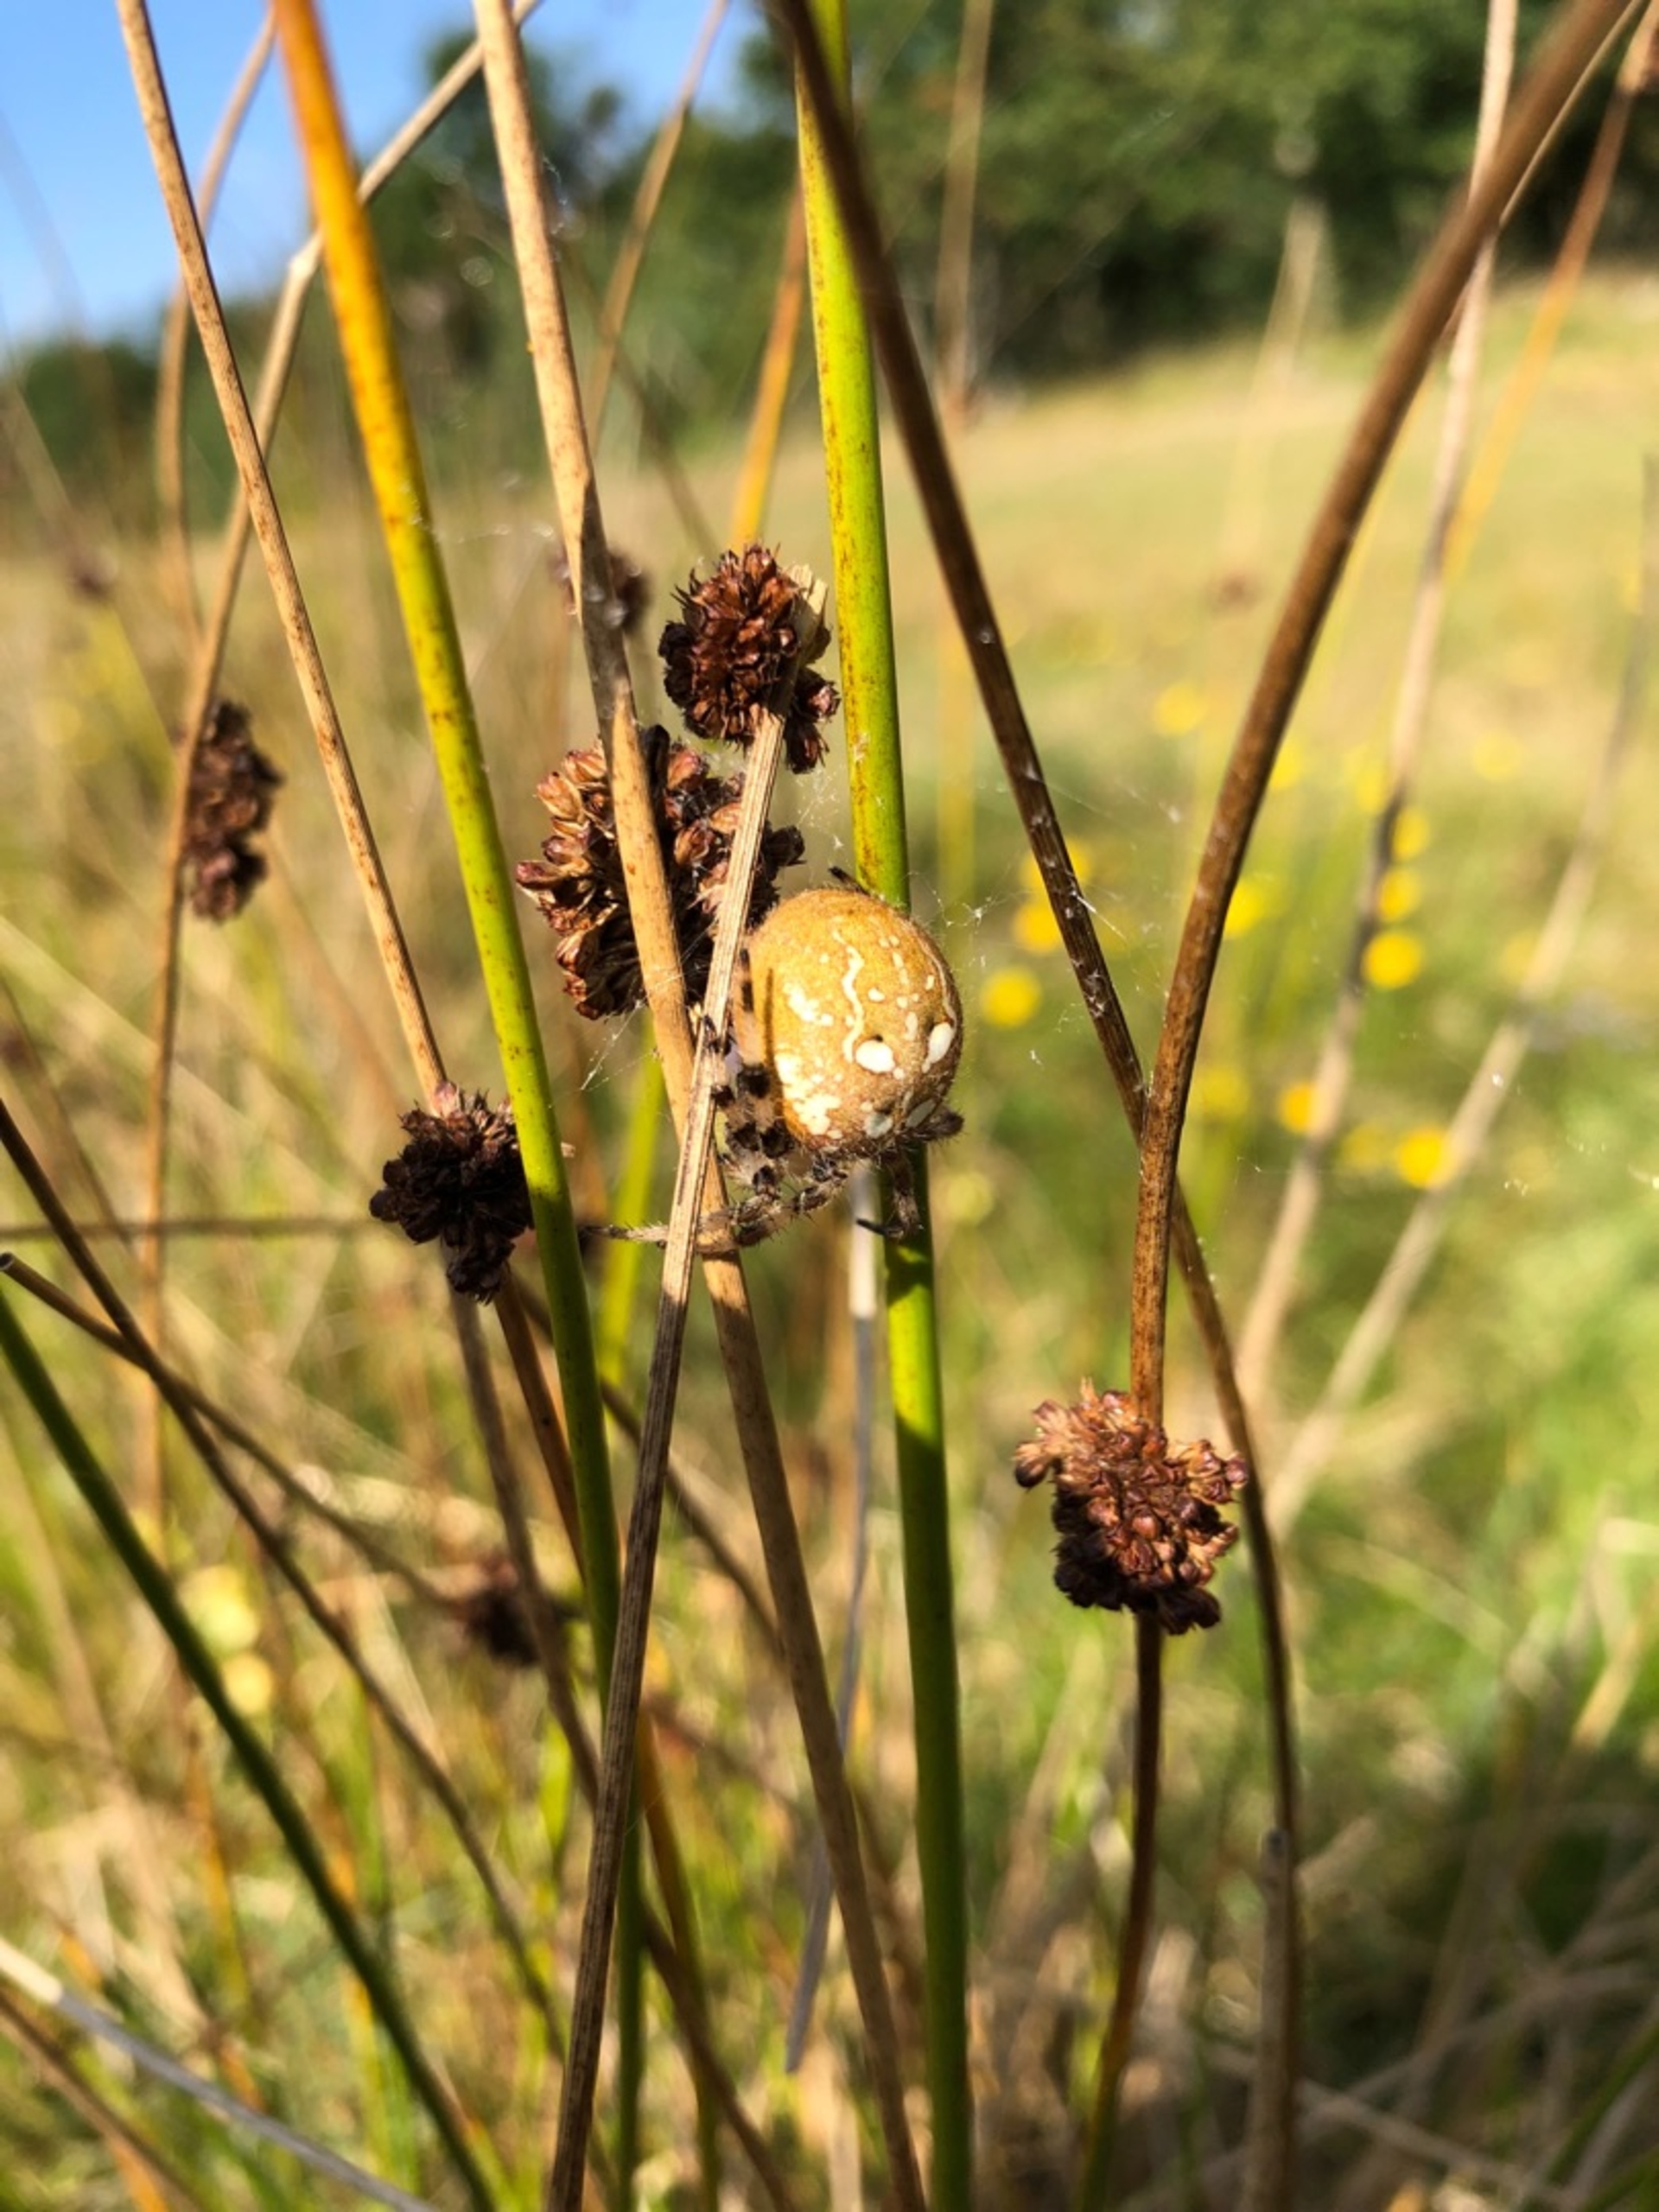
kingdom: Animalia
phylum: Arthropoda
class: Arachnida
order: Araneae
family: Araneidae
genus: Araneus
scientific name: Araneus quadratus
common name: Kvadratedderkop
